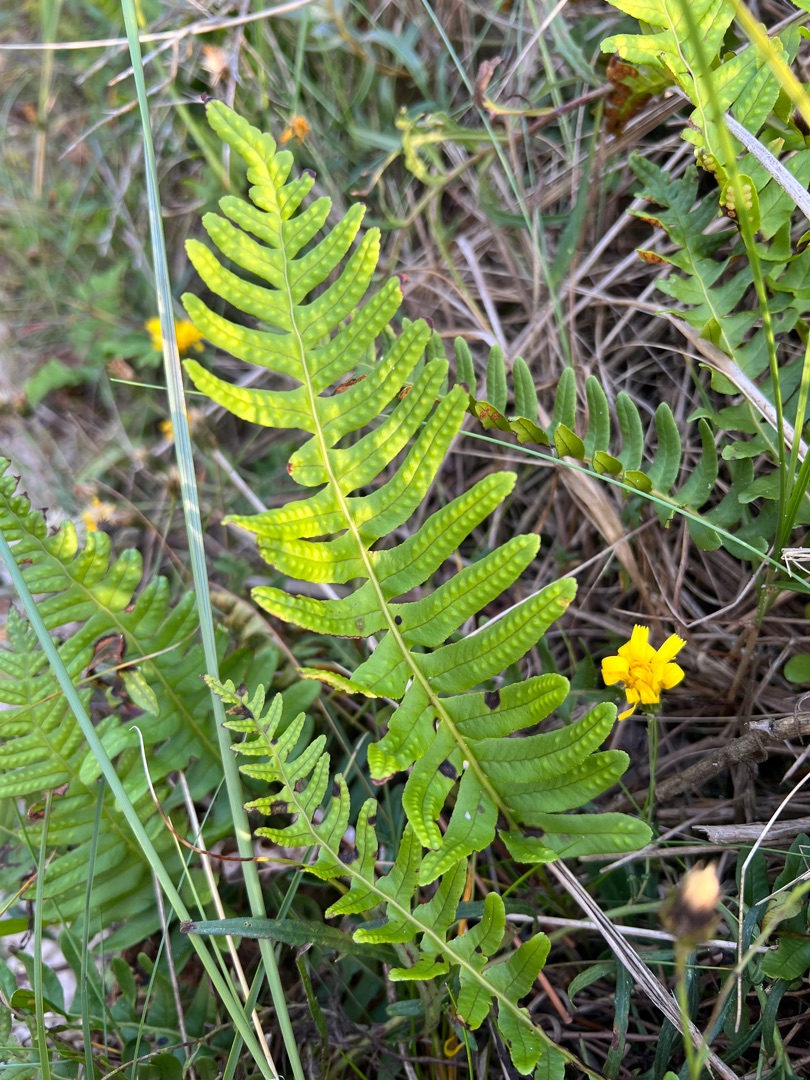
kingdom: Plantae
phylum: Tracheophyta
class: Polypodiopsida
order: Polypodiales
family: Polypodiaceae
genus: Polypodium
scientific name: Polypodium vulgare
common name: Almindelig engelsød
